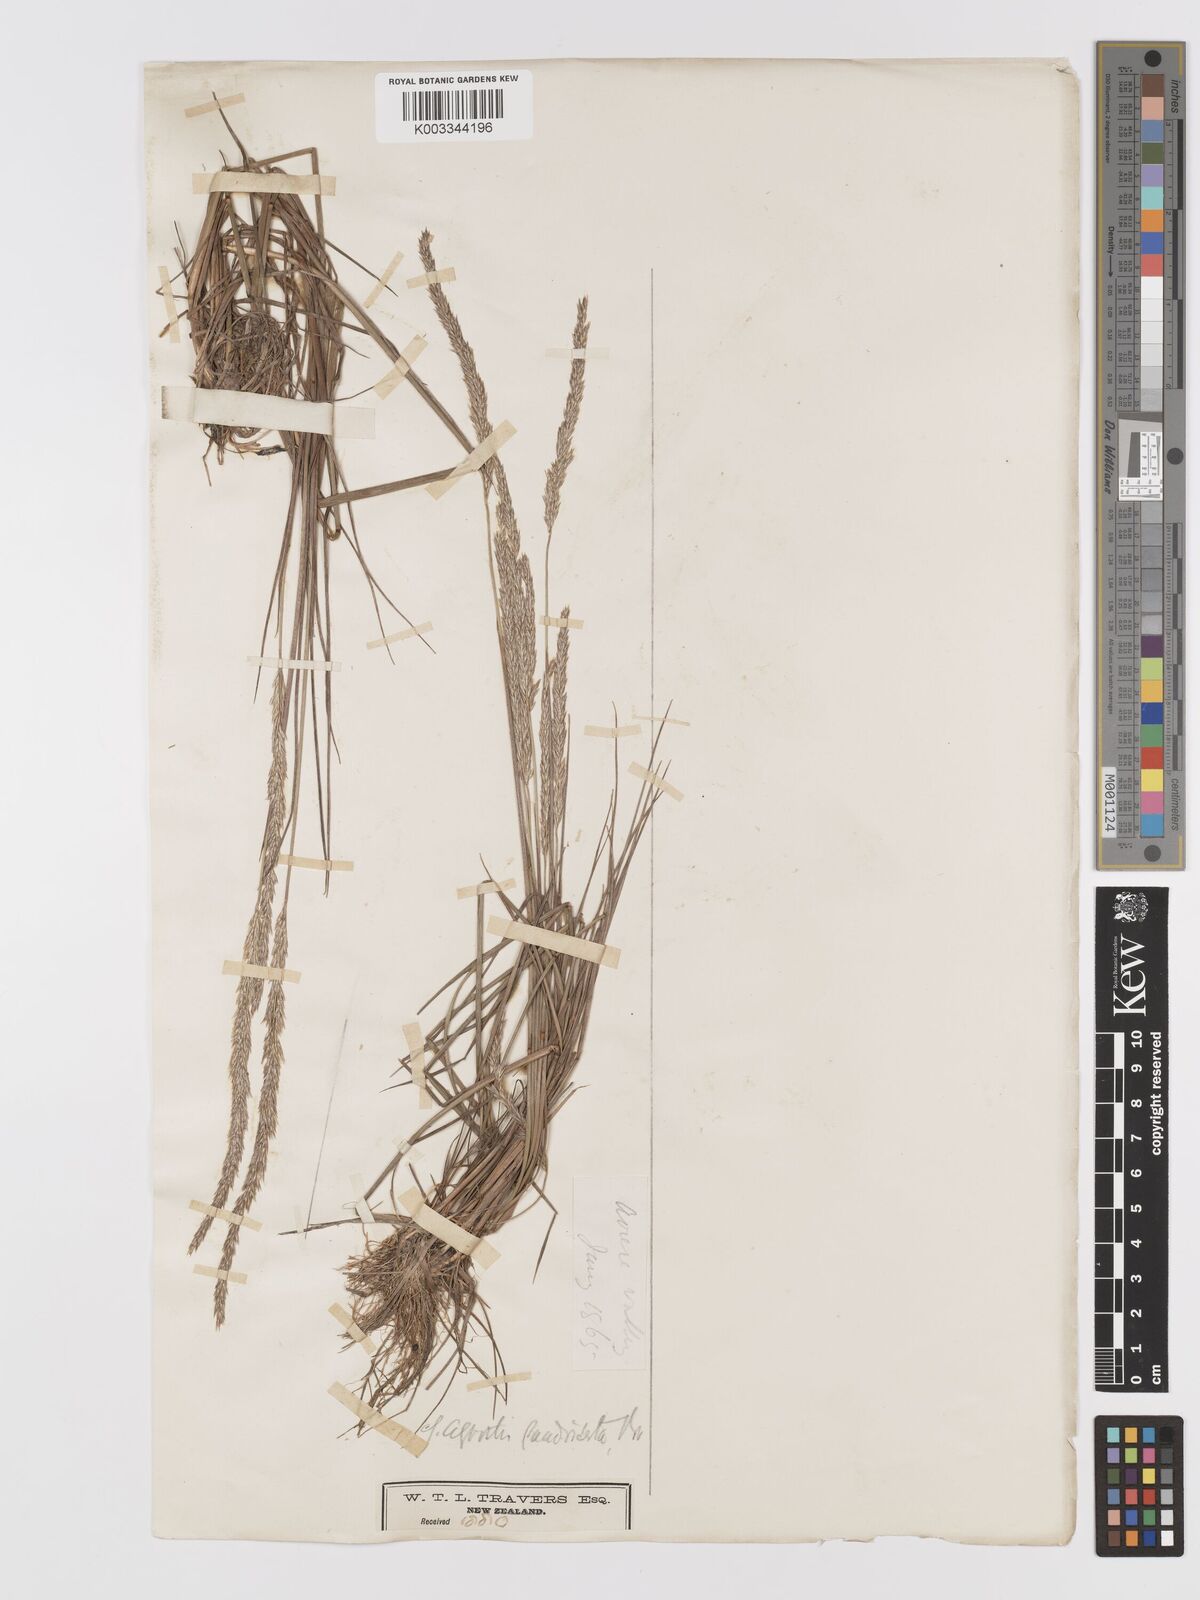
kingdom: Plantae
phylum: Tracheophyta
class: Liliopsida
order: Poales
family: Poaceae
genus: Agrostis
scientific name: Agrostis
